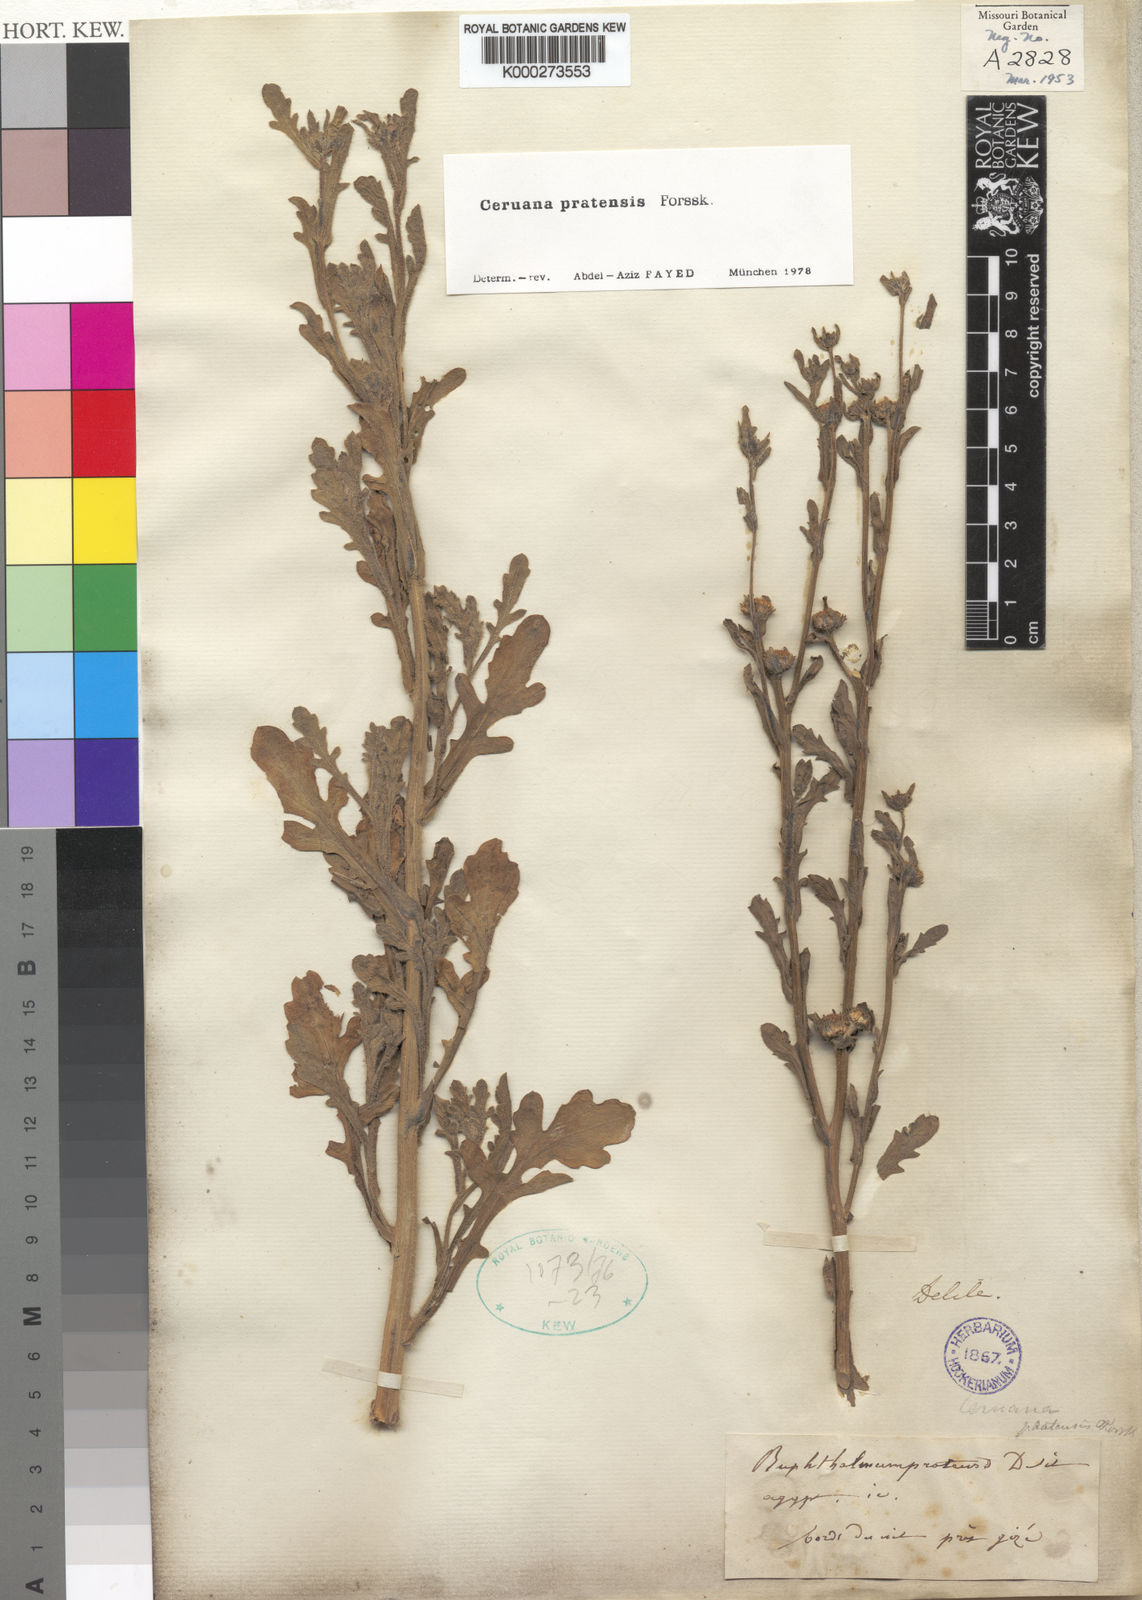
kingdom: Plantae
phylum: Tracheophyta
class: Magnoliopsida
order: Asterales
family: Asteraceae
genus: Ceruana
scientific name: Ceruana pratensis
